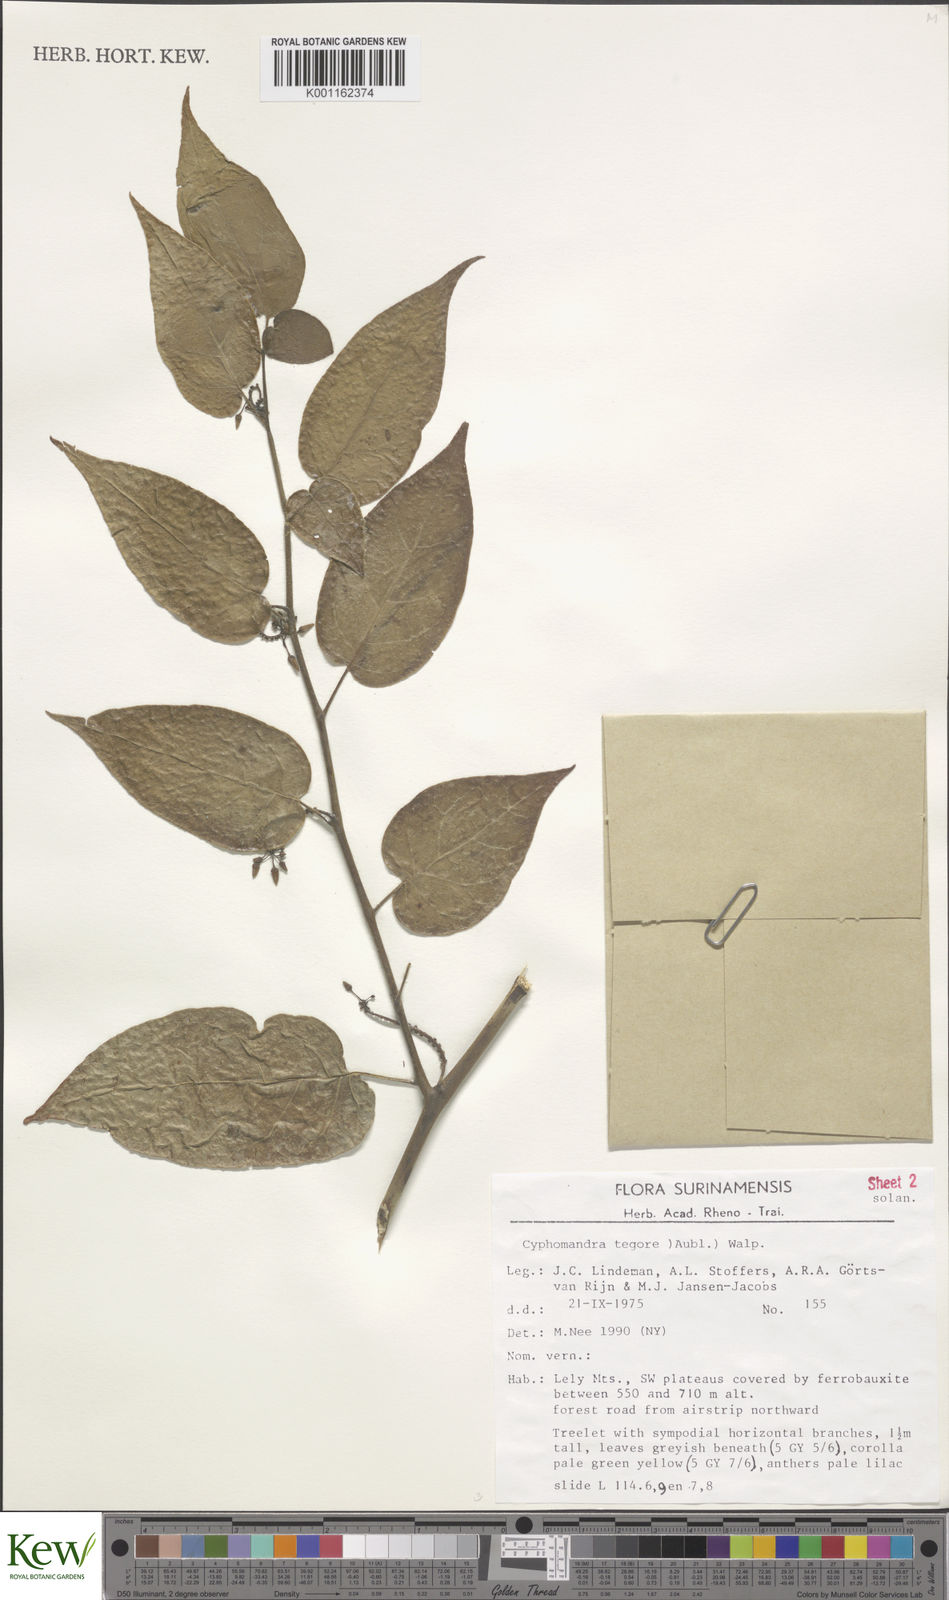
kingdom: Plantae
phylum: Tracheophyta
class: Magnoliopsida
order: Solanales
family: Solanaceae
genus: Solanum
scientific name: Solanum tegore
